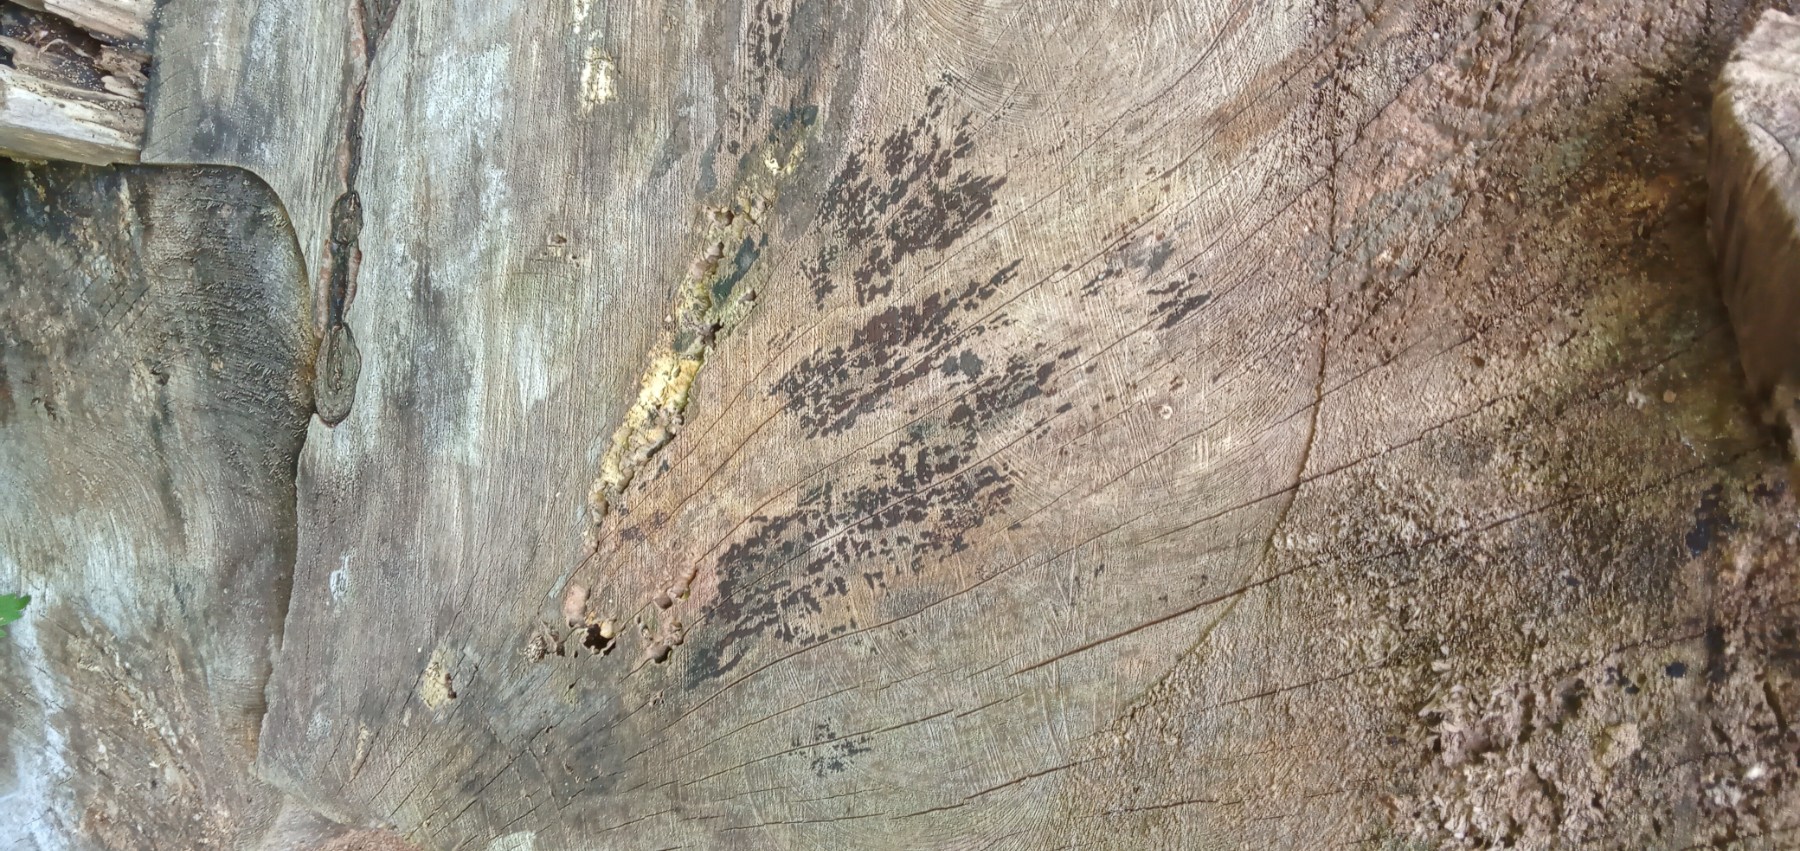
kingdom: Fungi
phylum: Ascomycota
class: Leotiomycetes
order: Helotiales
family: Helotiaceae
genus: Bispora
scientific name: Bispora pallescens
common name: måtte-snitskive
